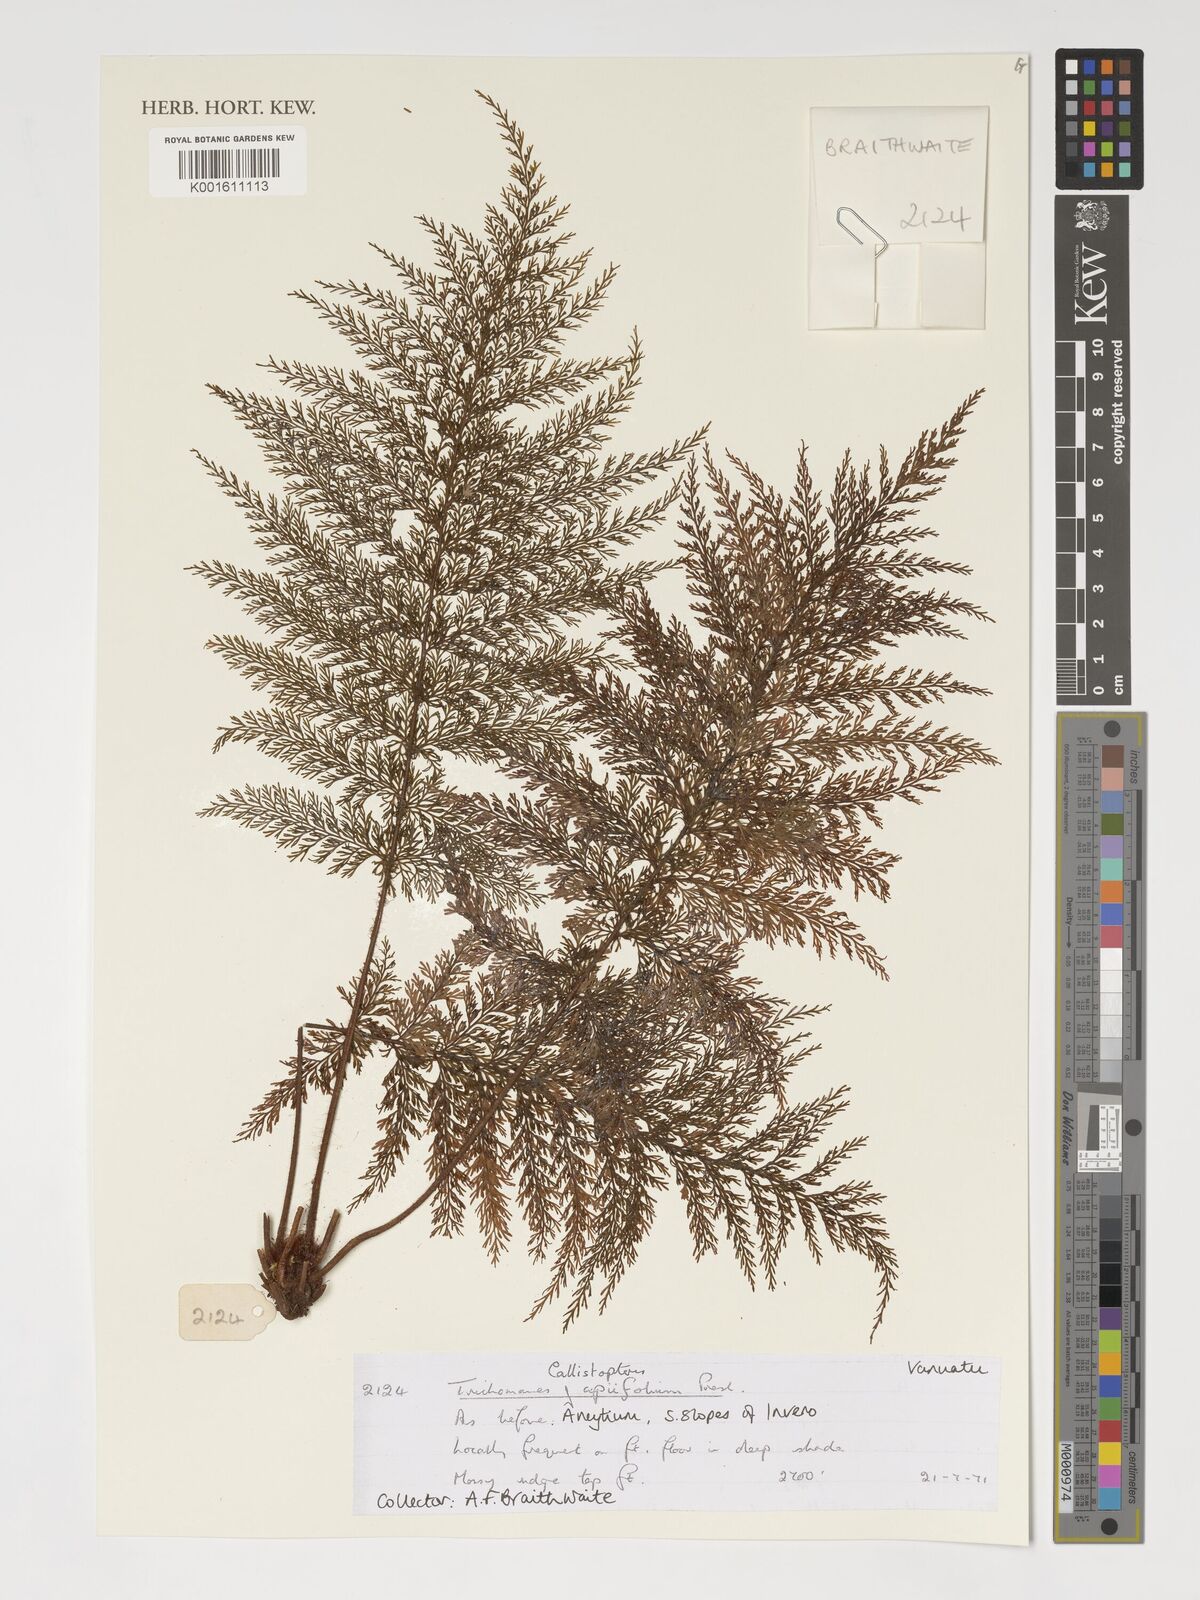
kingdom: Plantae
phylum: Tracheophyta
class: Polypodiopsida
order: Hymenophyllales
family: Hymenophyllaceae
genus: Callistopteris
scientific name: Callistopteris apiifolia
